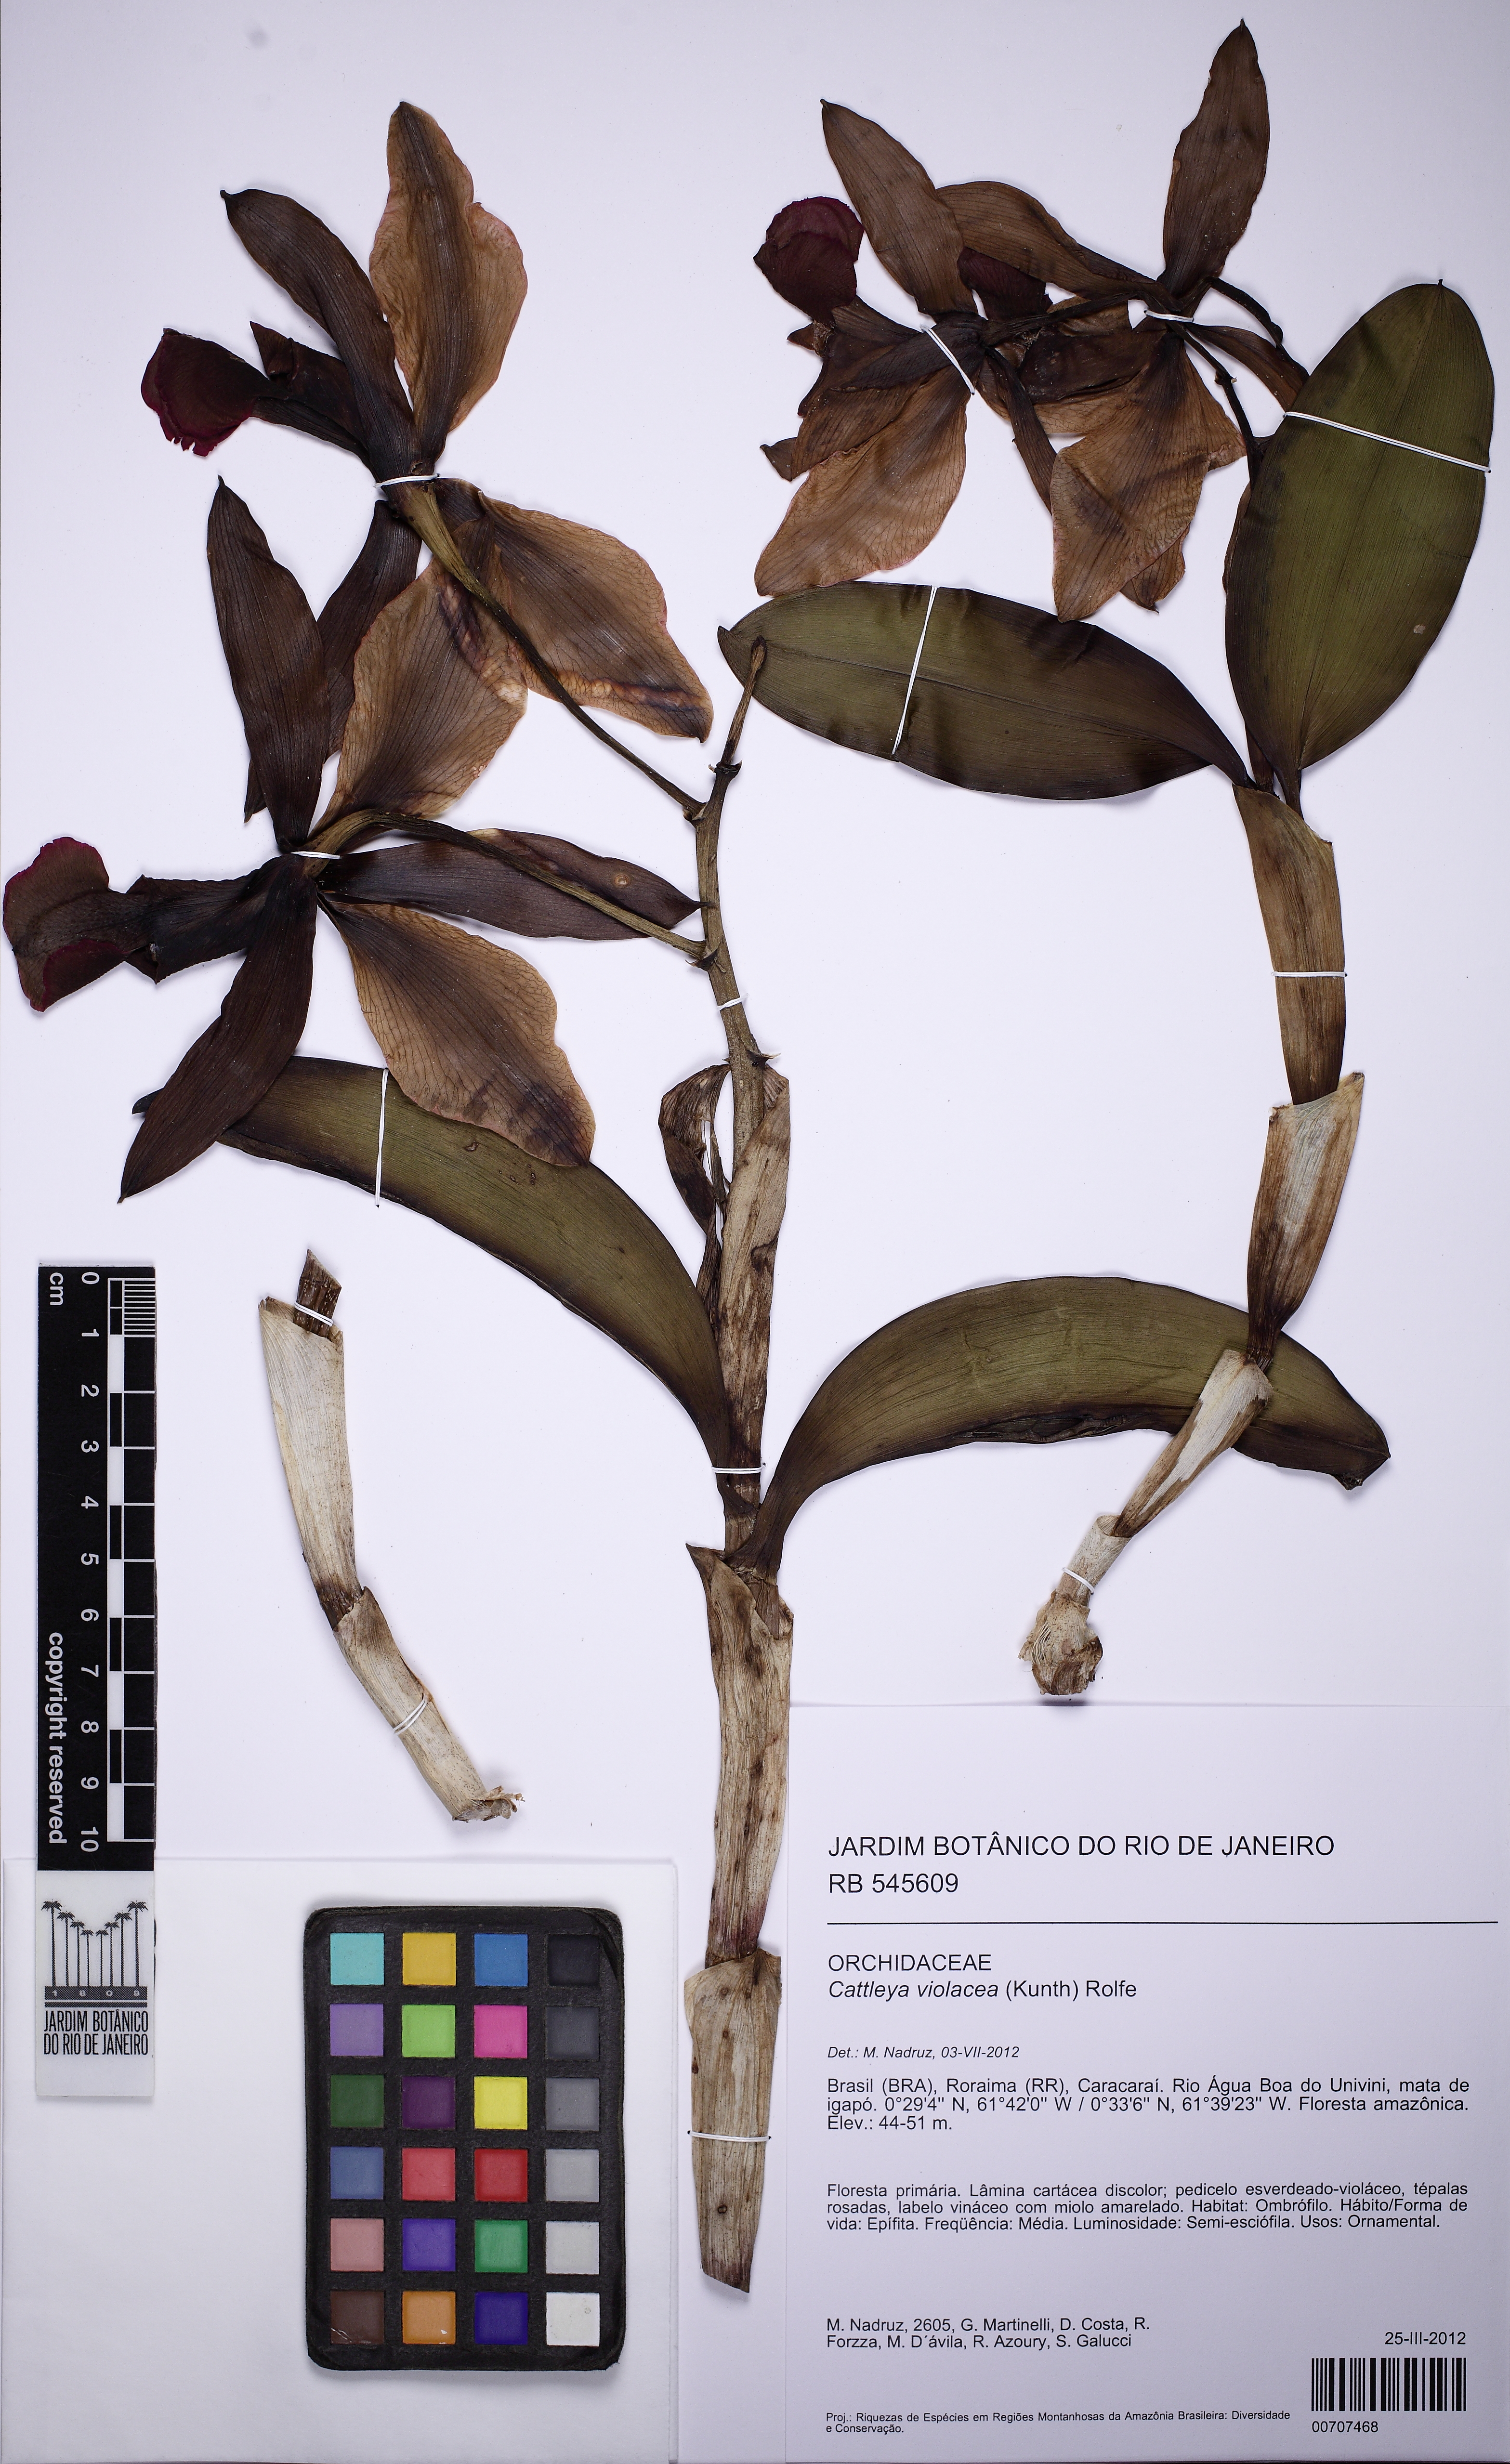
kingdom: Plantae
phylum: Tracheophyta
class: Liliopsida
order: Asparagales
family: Orchidaceae
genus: Cattleya
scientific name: Cattleya violacea
